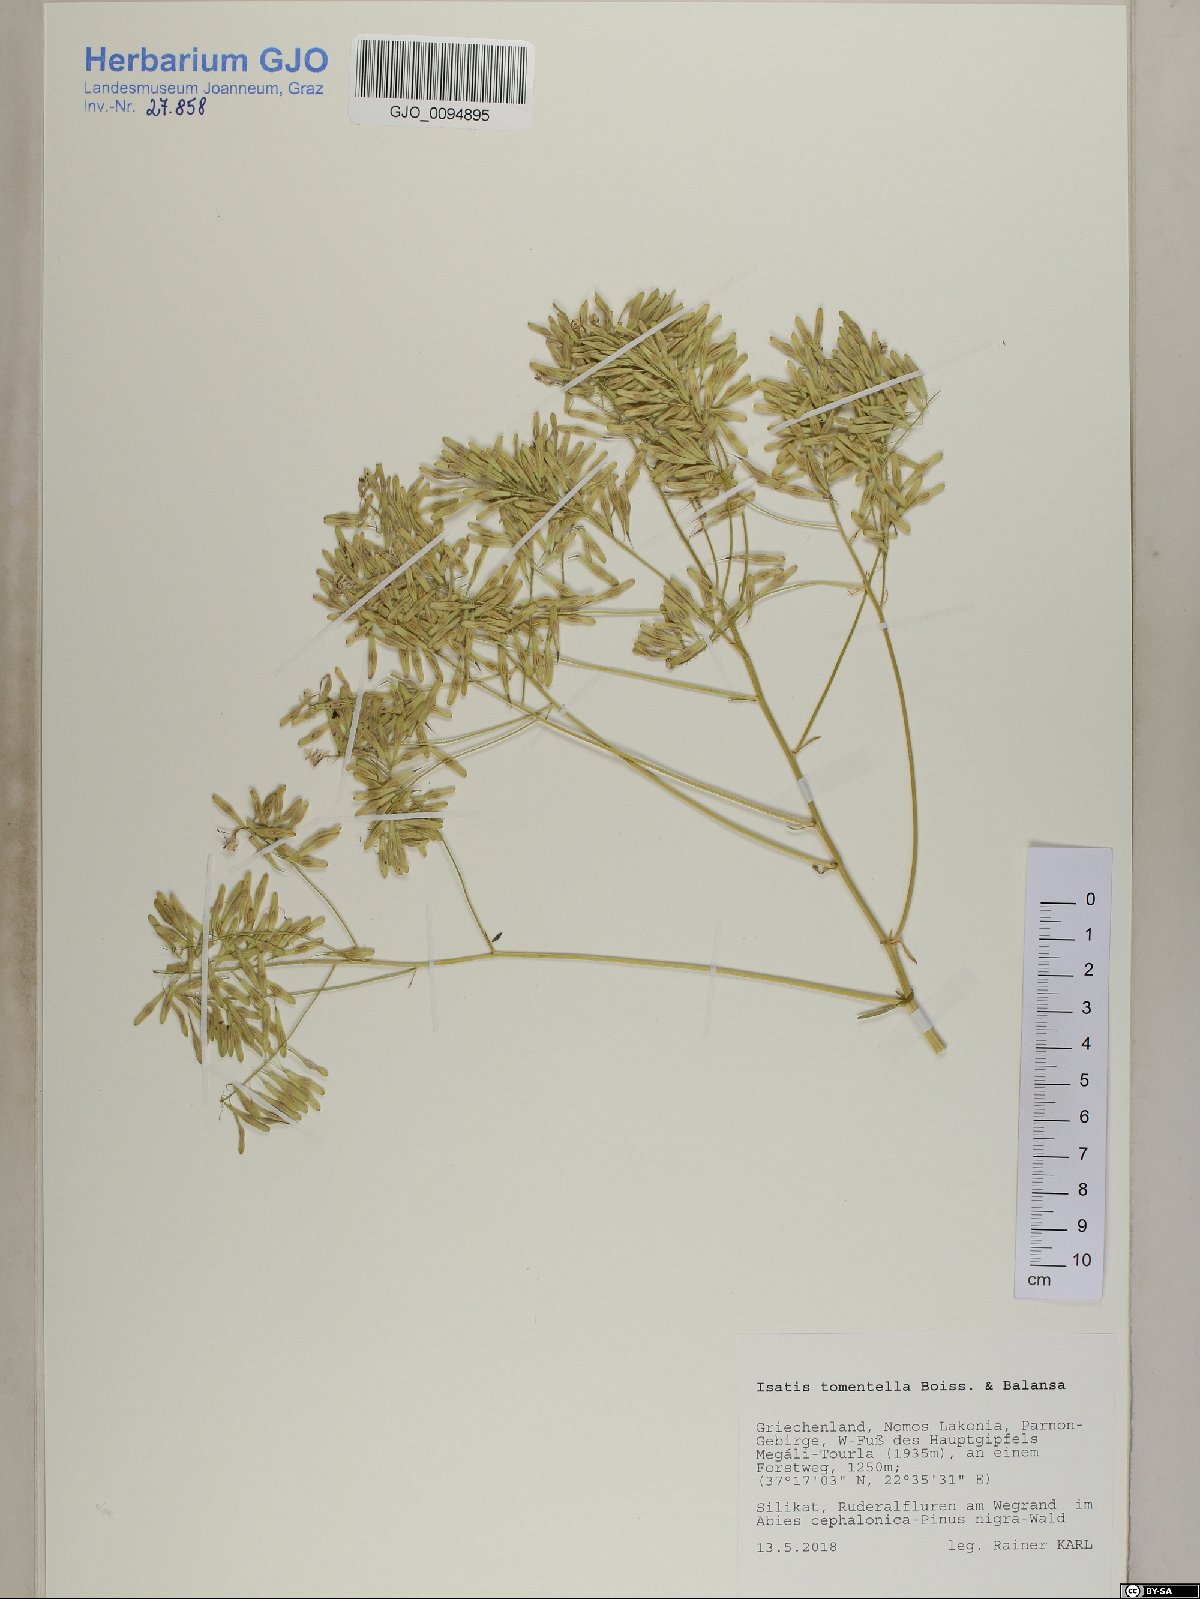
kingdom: Plantae
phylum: Tracheophyta
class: Magnoliopsida
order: Brassicales
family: Brassicaceae
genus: Isatis
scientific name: Isatis tomentella
